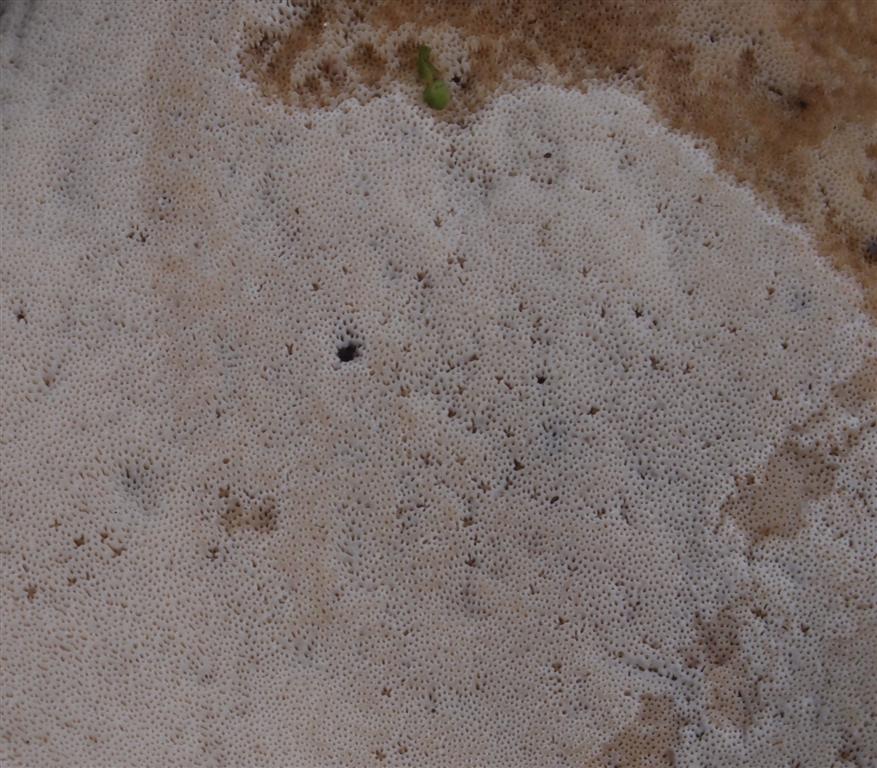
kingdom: Fungi
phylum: Basidiomycota
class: Agaricomycetes
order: Polyporales
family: Polyporaceae
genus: Cerioporus
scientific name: Cerioporus varius
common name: foranderlig stilkporesvamp
